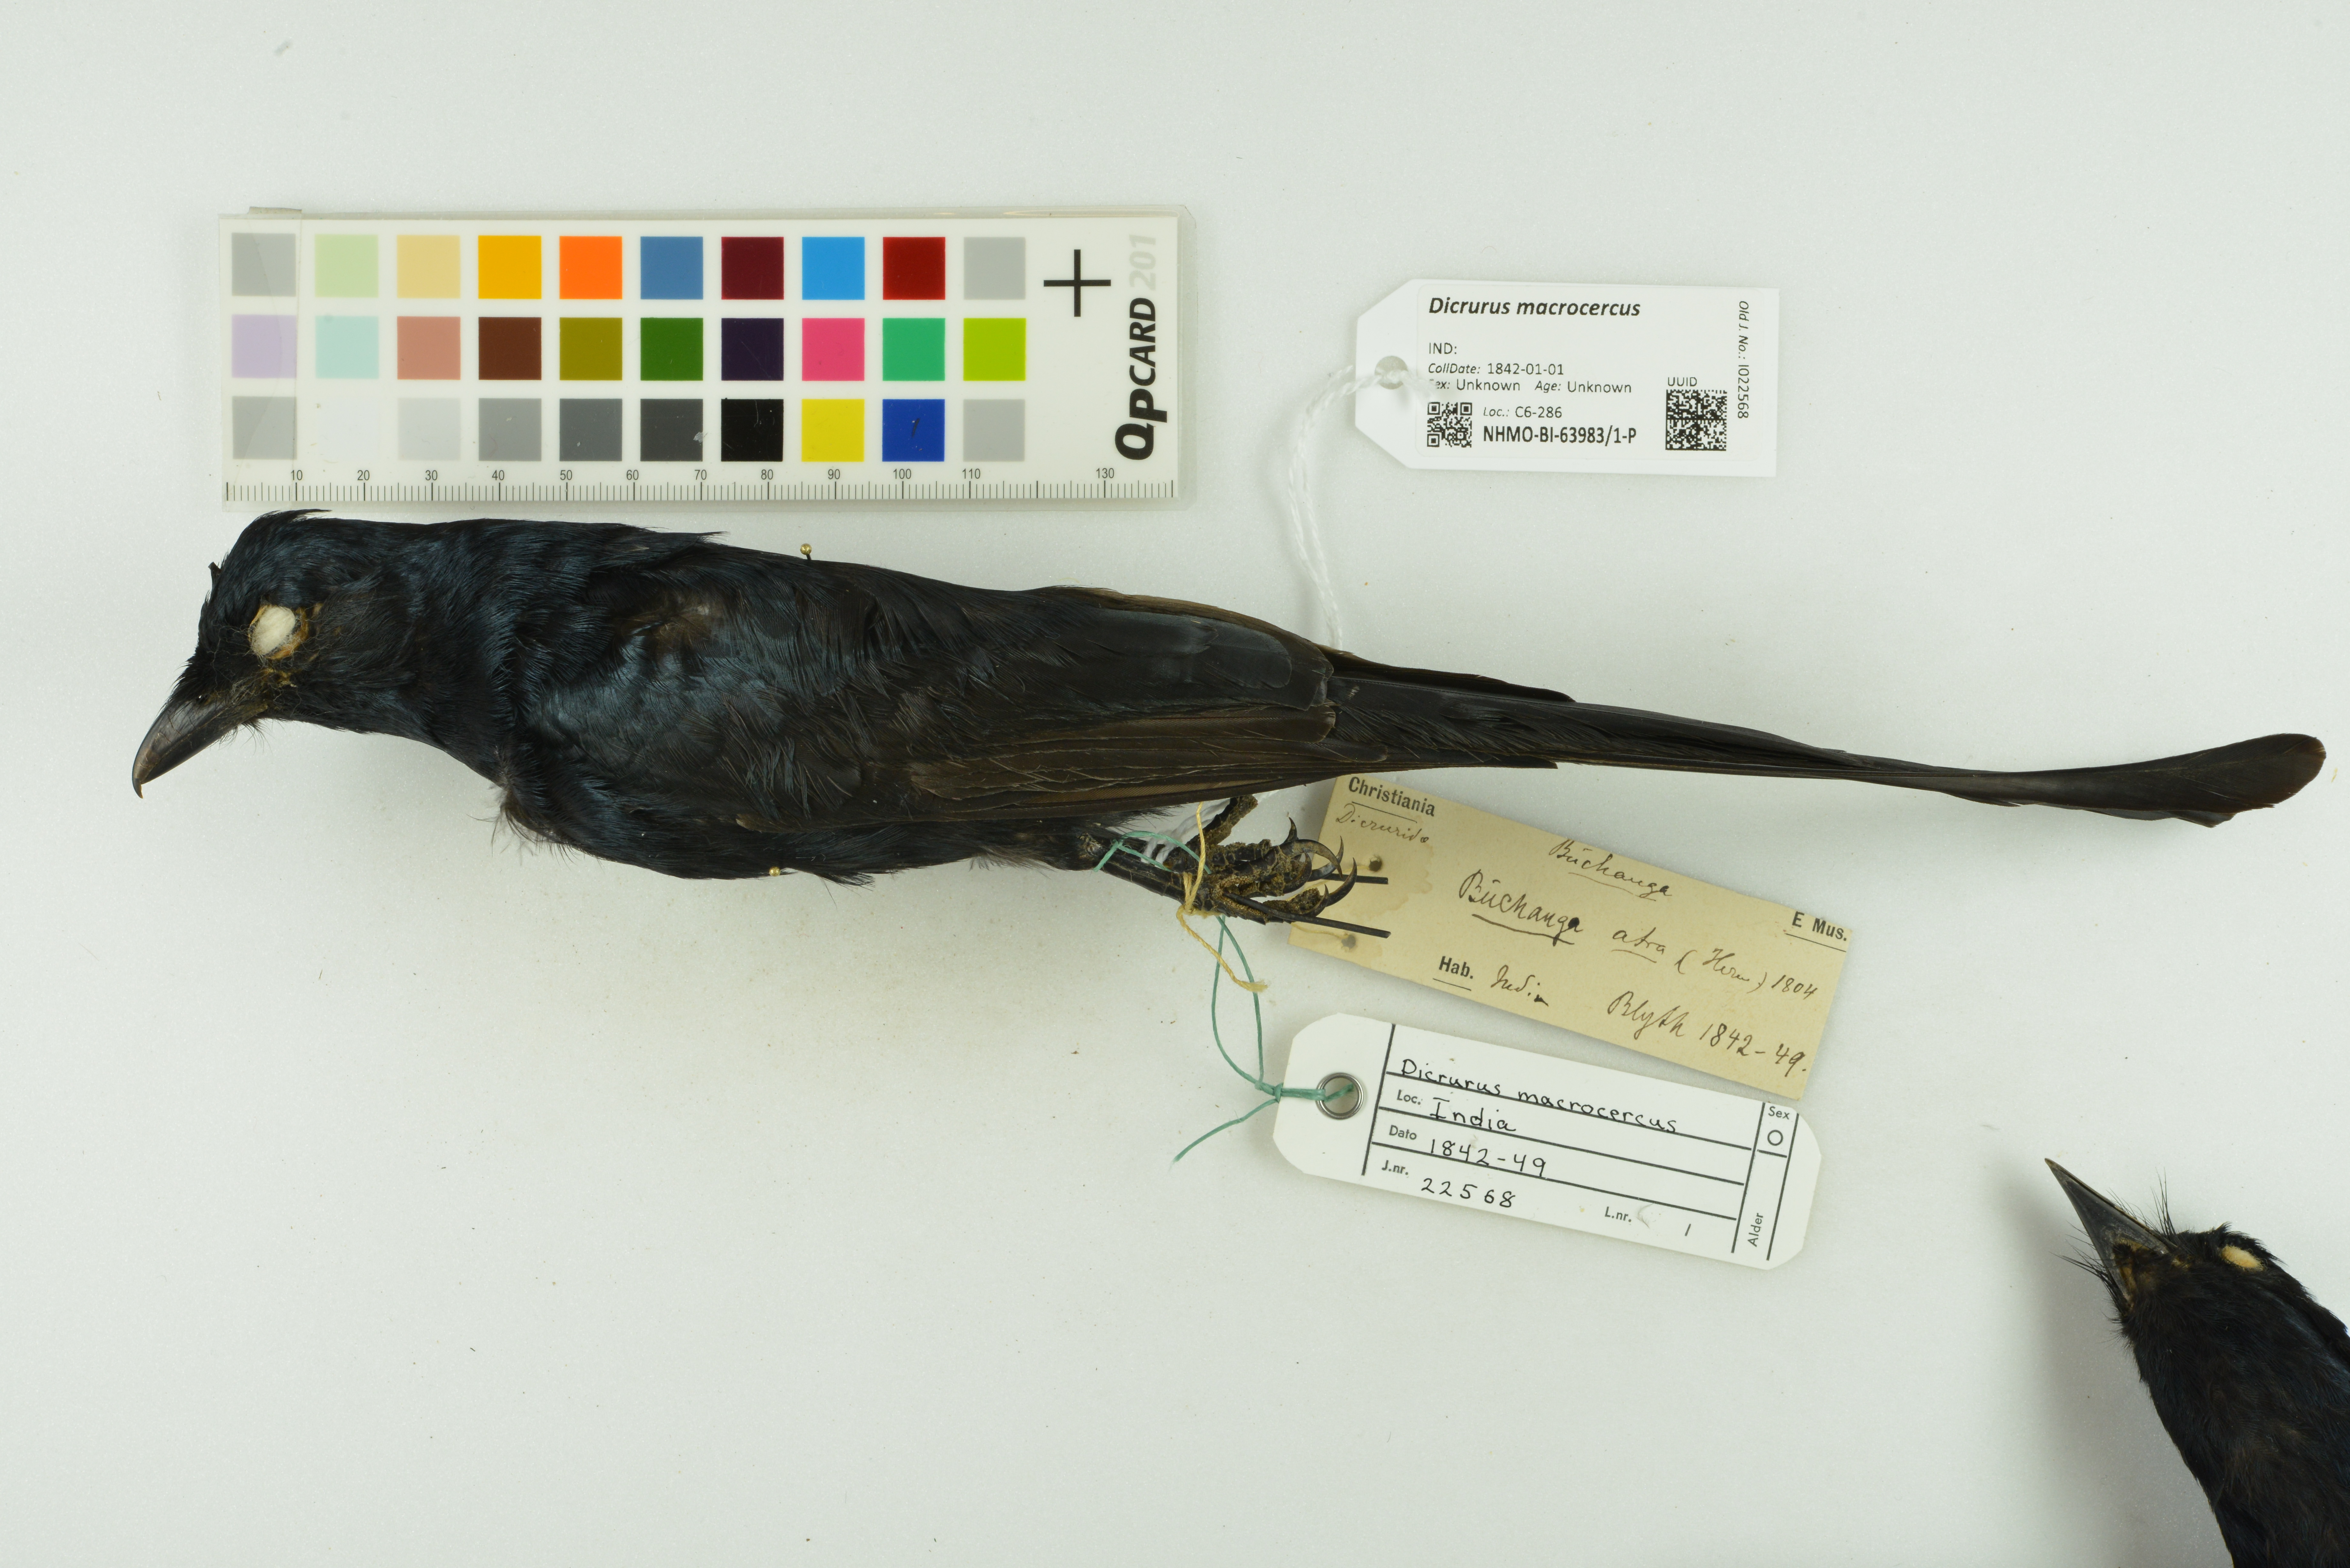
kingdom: Animalia
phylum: Chordata
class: Aves
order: Passeriformes
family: Dicruridae
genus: Dicrurus
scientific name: Dicrurus macrocercus
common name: Black drongo
